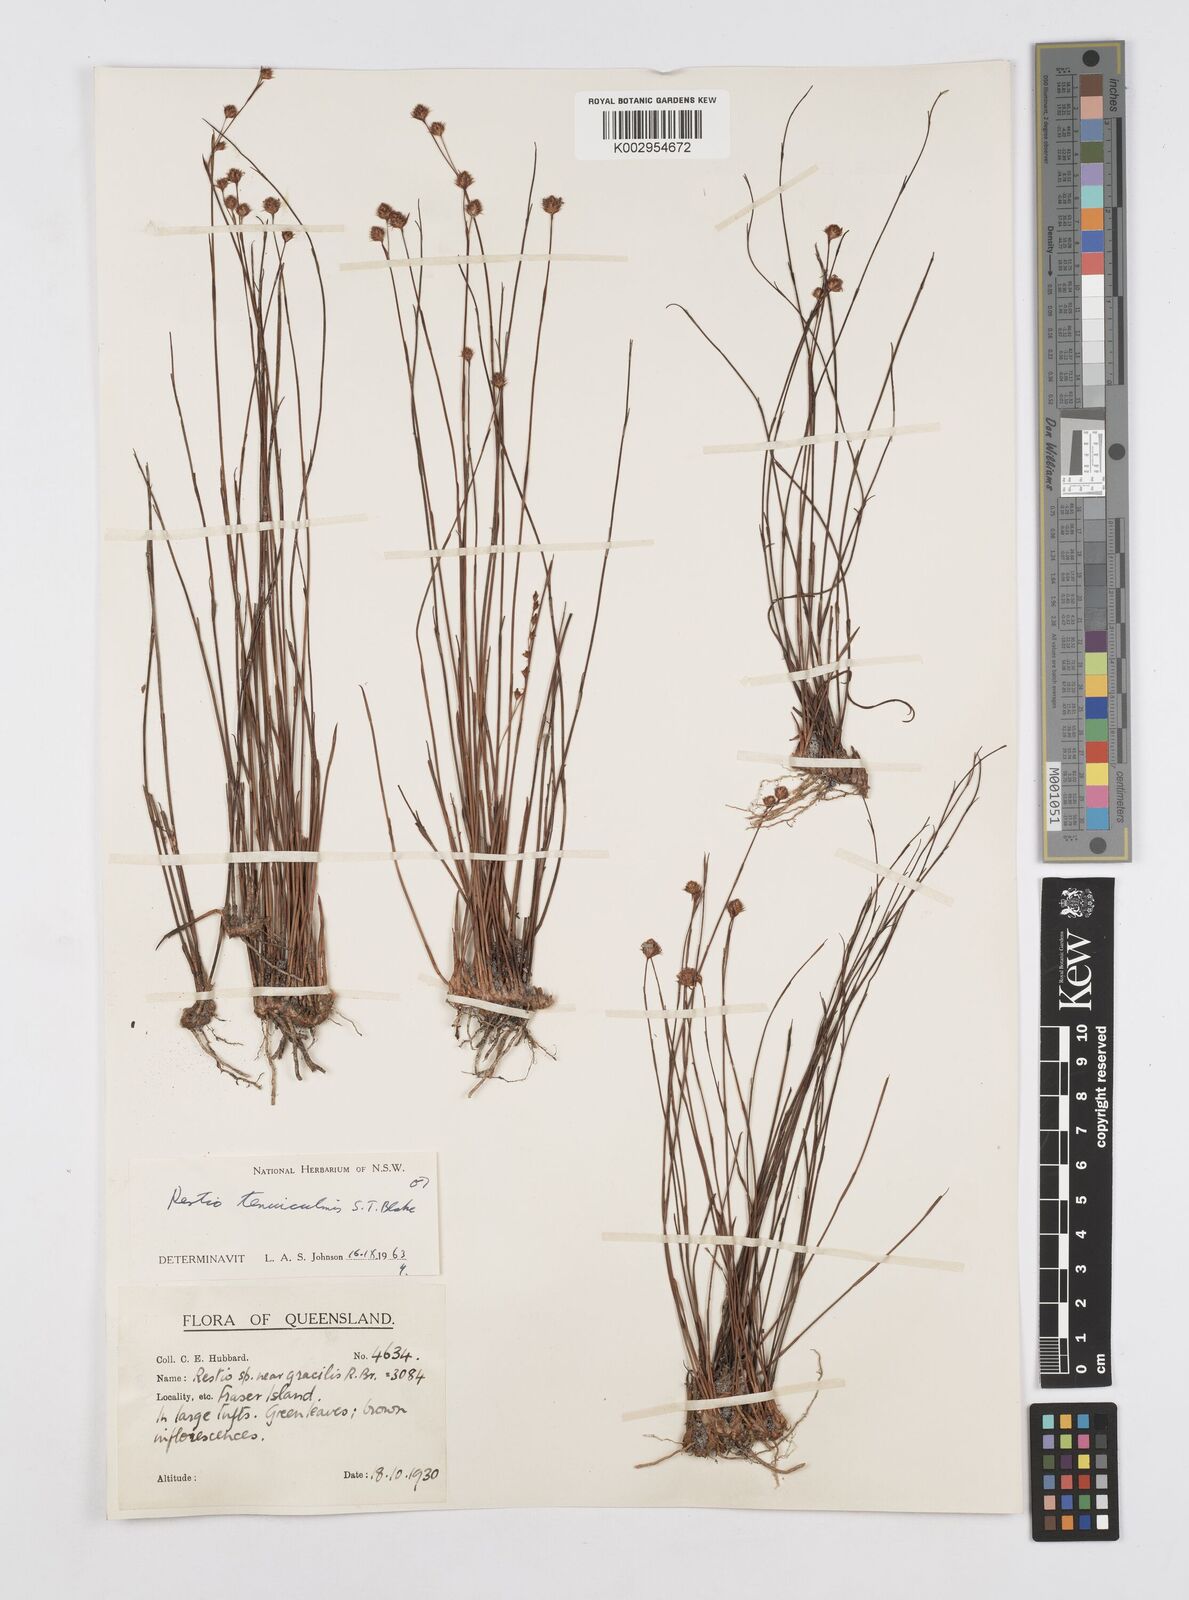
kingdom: Plantae
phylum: Tracheophyta
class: Liliopsida
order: Poales
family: Restionaceae
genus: Baloskion
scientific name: Baloskion tenuiculme
